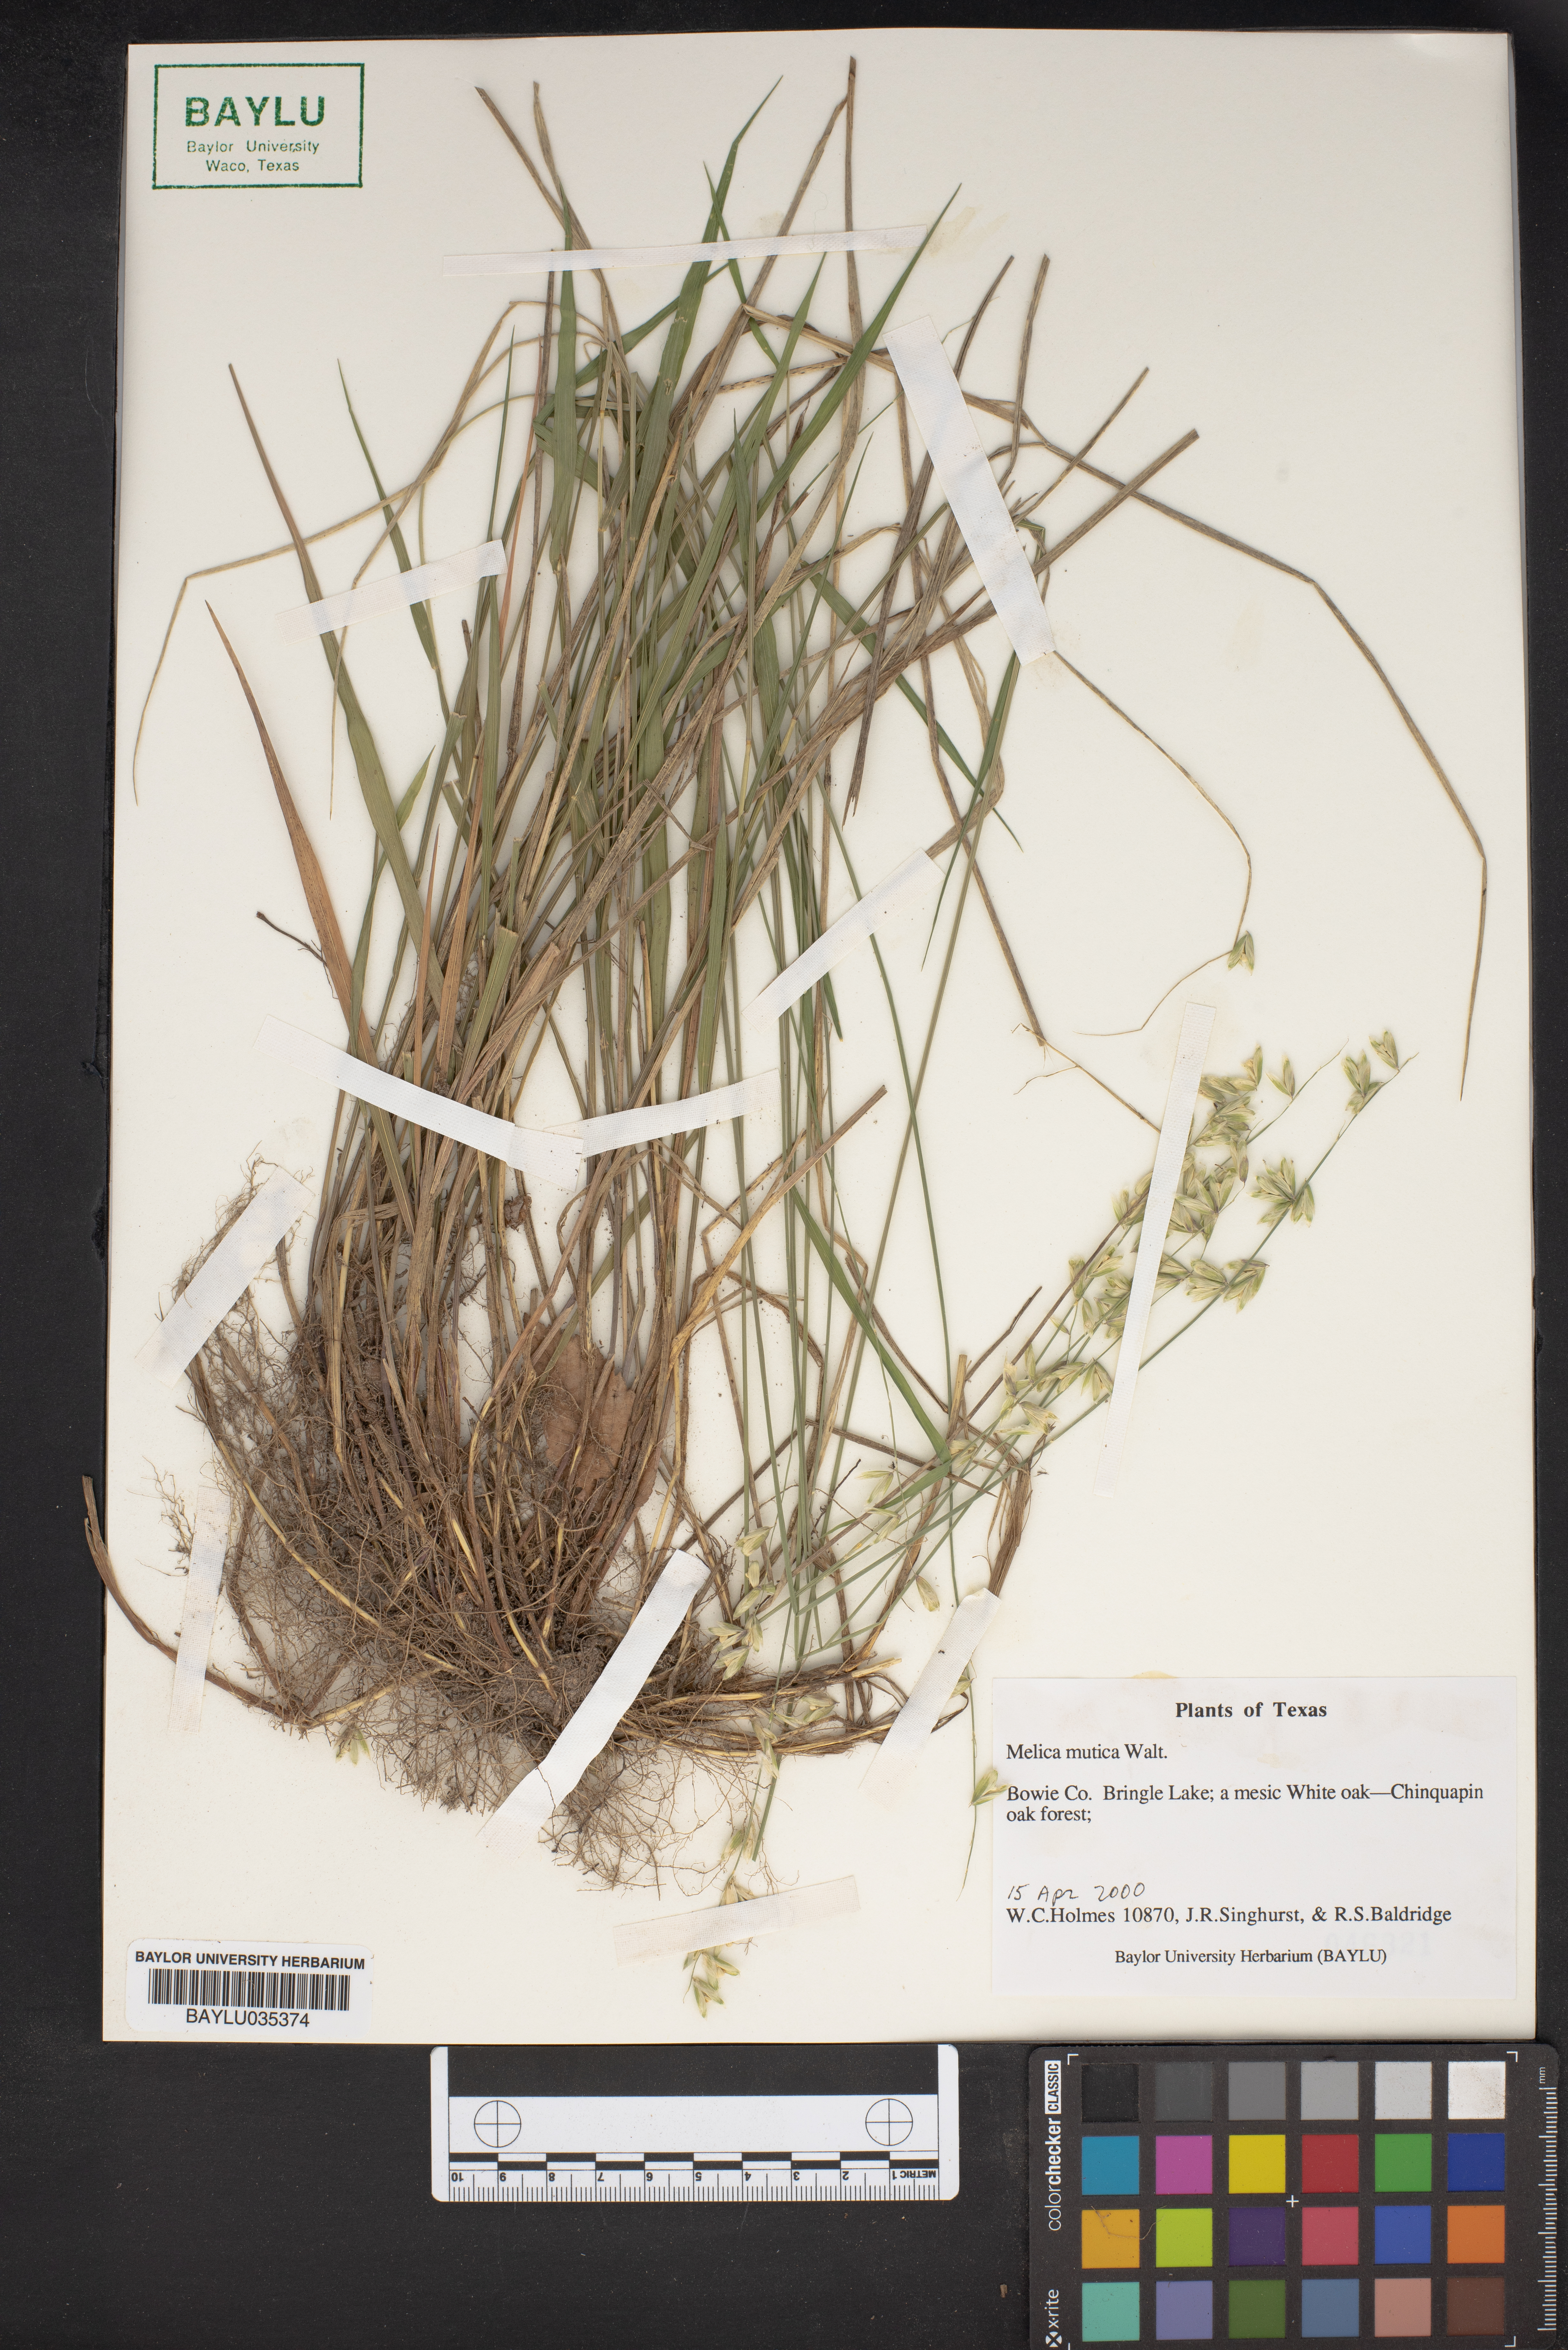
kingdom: Plantae
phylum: Tracheophyta
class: Liliopsida
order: Poales
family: Poaceae
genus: Melica
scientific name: Melica mutica
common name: Two-flower melic
